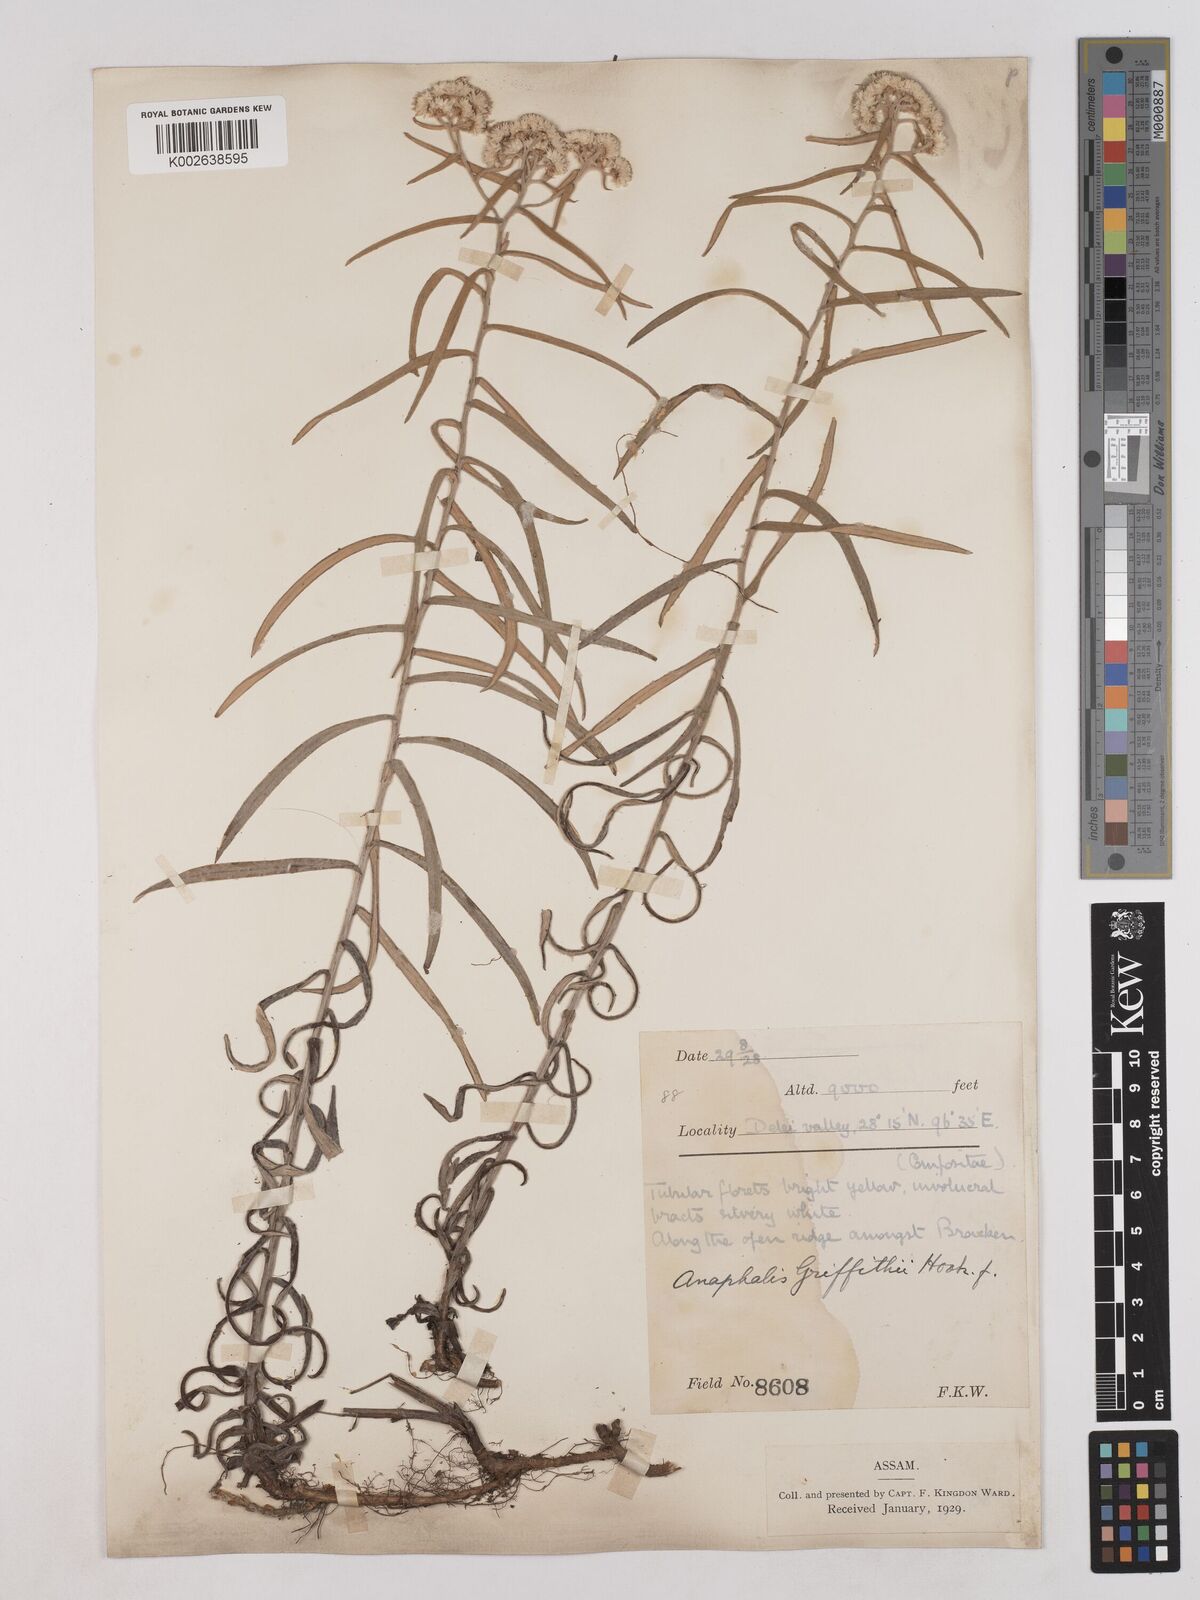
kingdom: Plantae
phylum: Tracheophyta
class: Magnoliopsida
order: Asterales
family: Asteraceae
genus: Anaphalis
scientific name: Anaphalis griffithii
